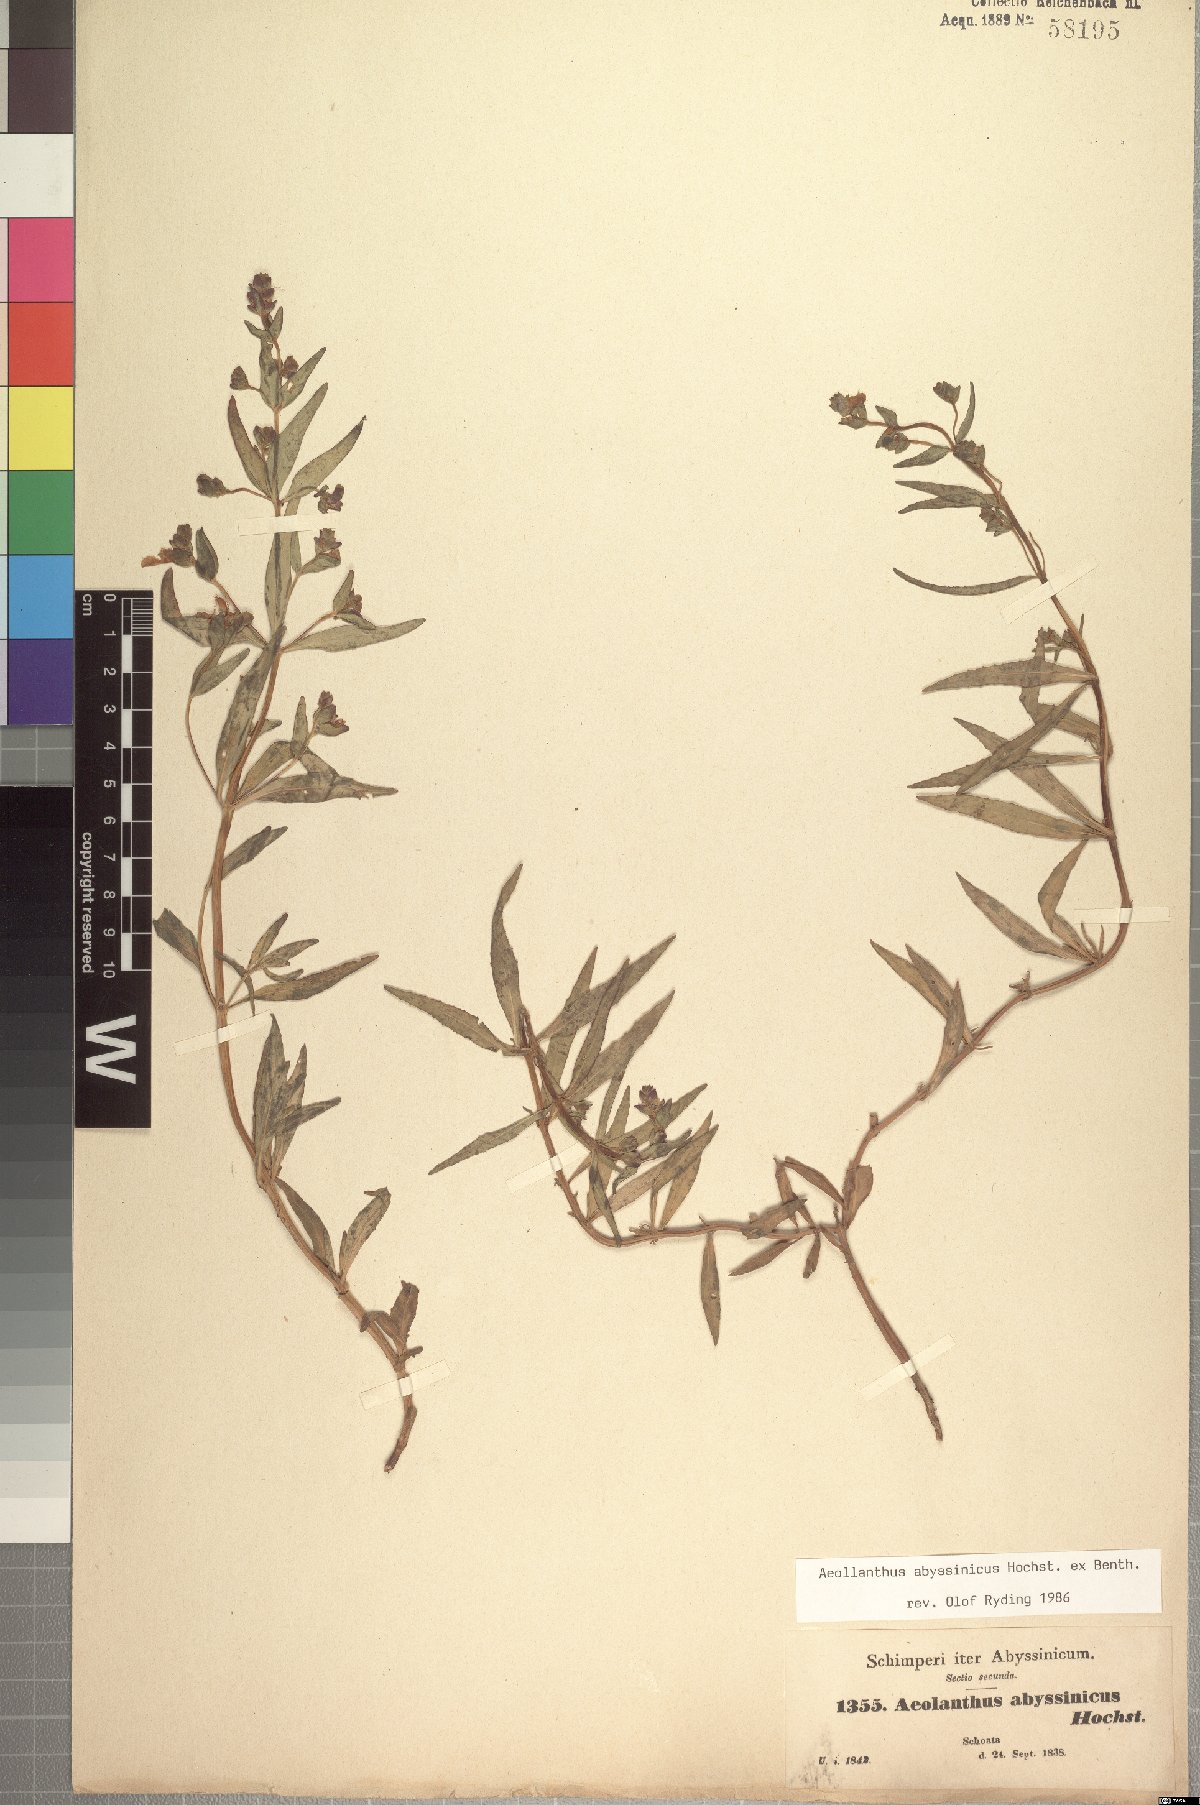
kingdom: Plantae
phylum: Tracheophyta
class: Magnoliopsida
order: Lamiales
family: Lamiaceae
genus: Aeollanthus
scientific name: Aeollanthus abyssinicus
